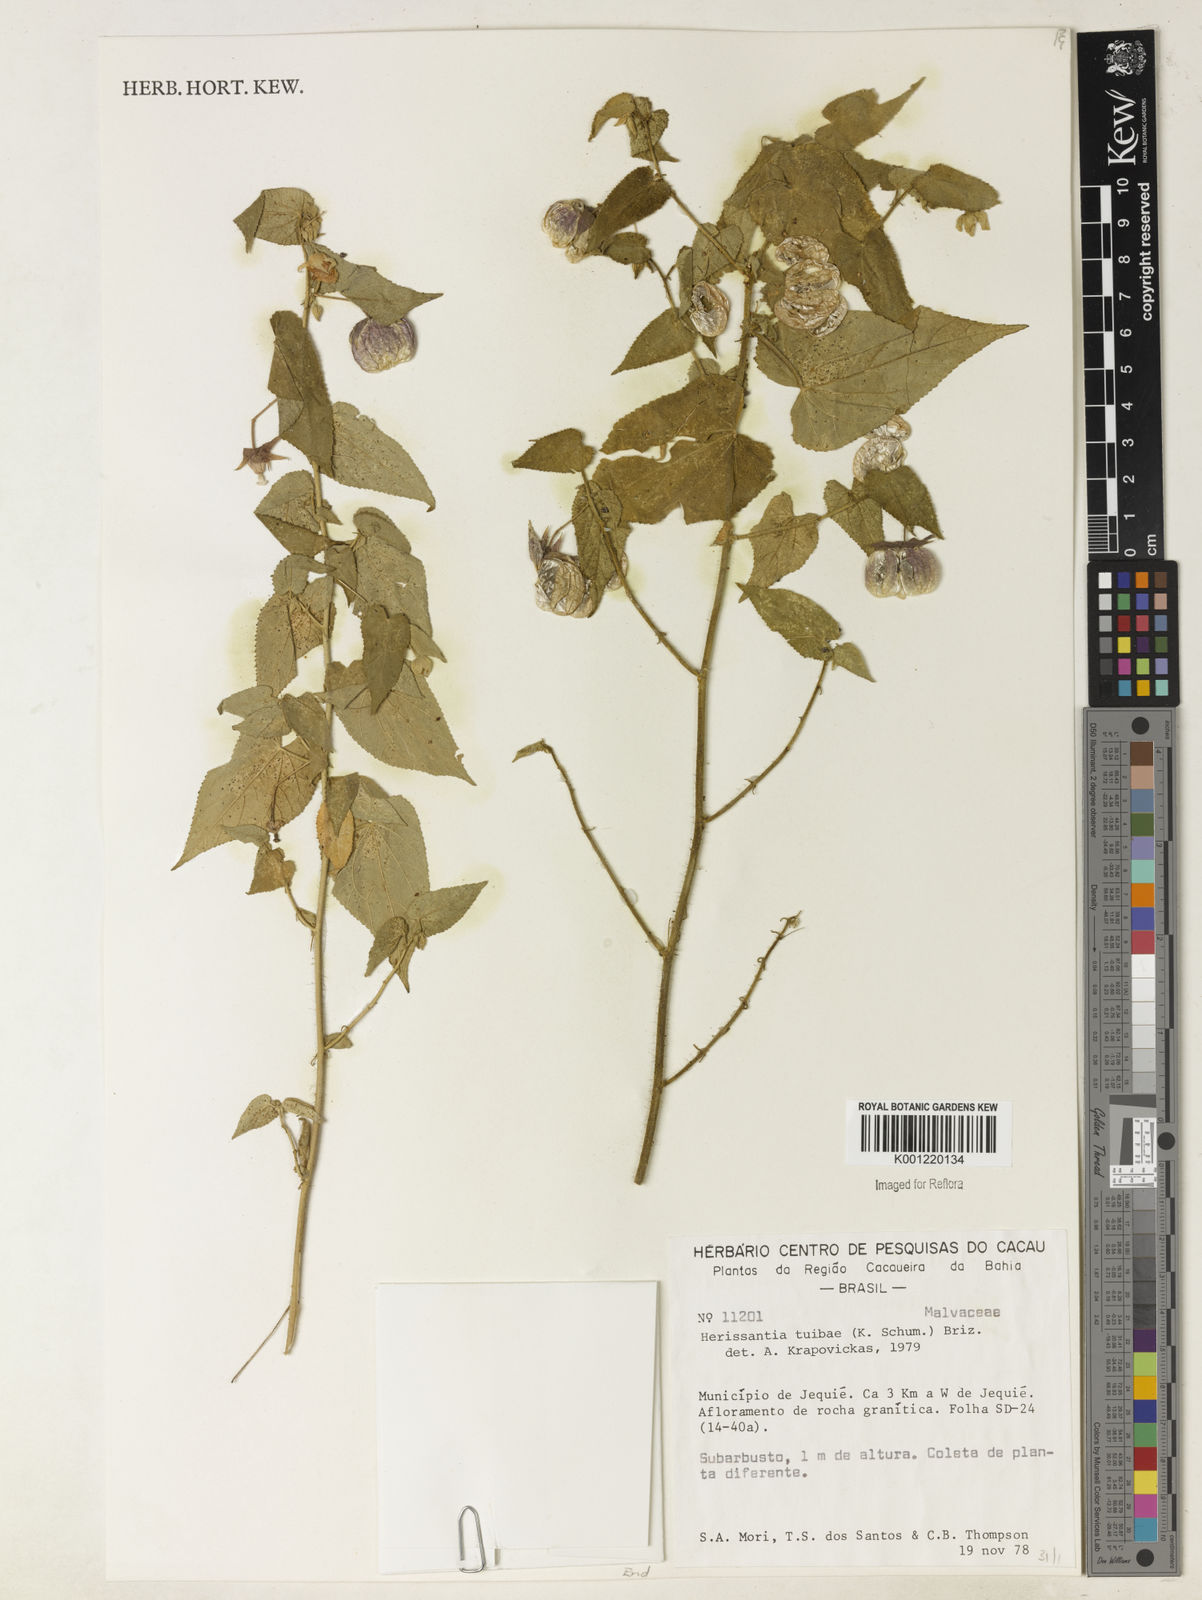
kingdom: Plantae
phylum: Tracheophyta
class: Magnoliopsida
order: Malvales
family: Malvaceae
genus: Herissantia
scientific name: Herissantia tiubae
